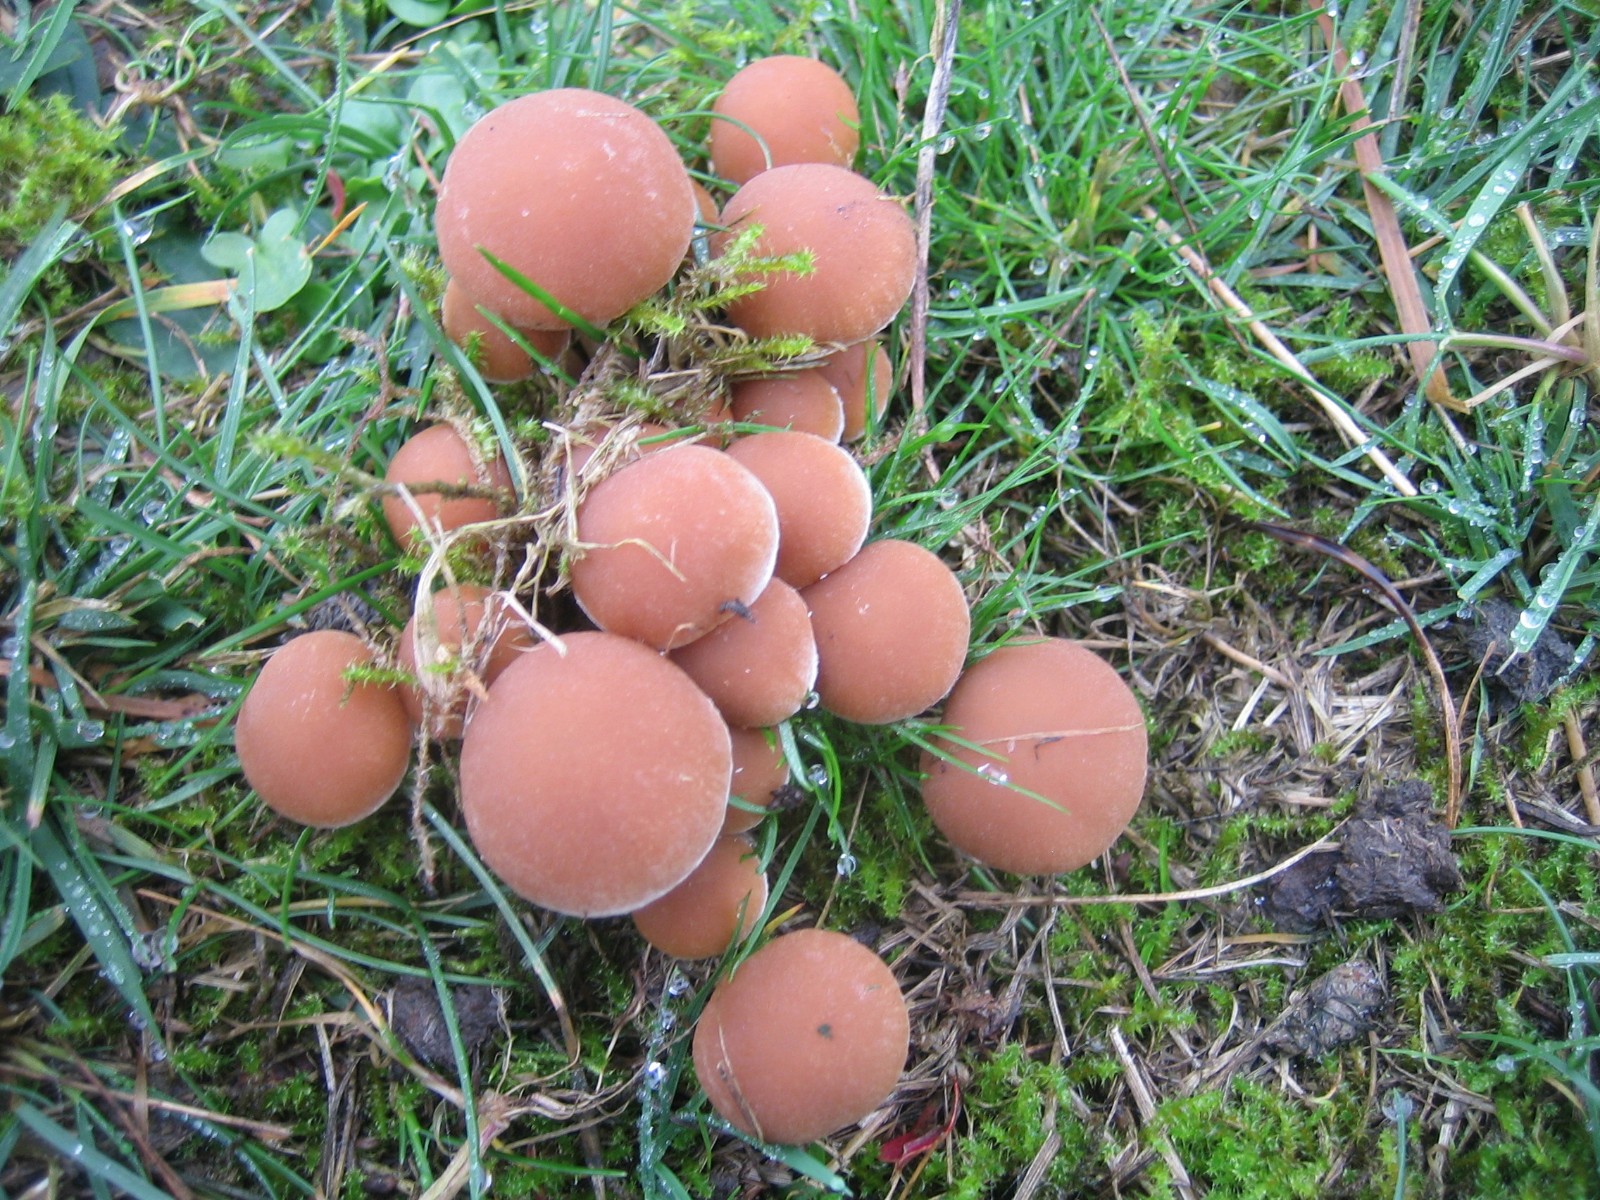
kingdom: Fungi
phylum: Basidiomycota
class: Agaricomycetes
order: Agaricales
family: Psathyrellaceae
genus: Psathyrella
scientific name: Psathyrella piluliformis
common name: lysstokket mørkhat
